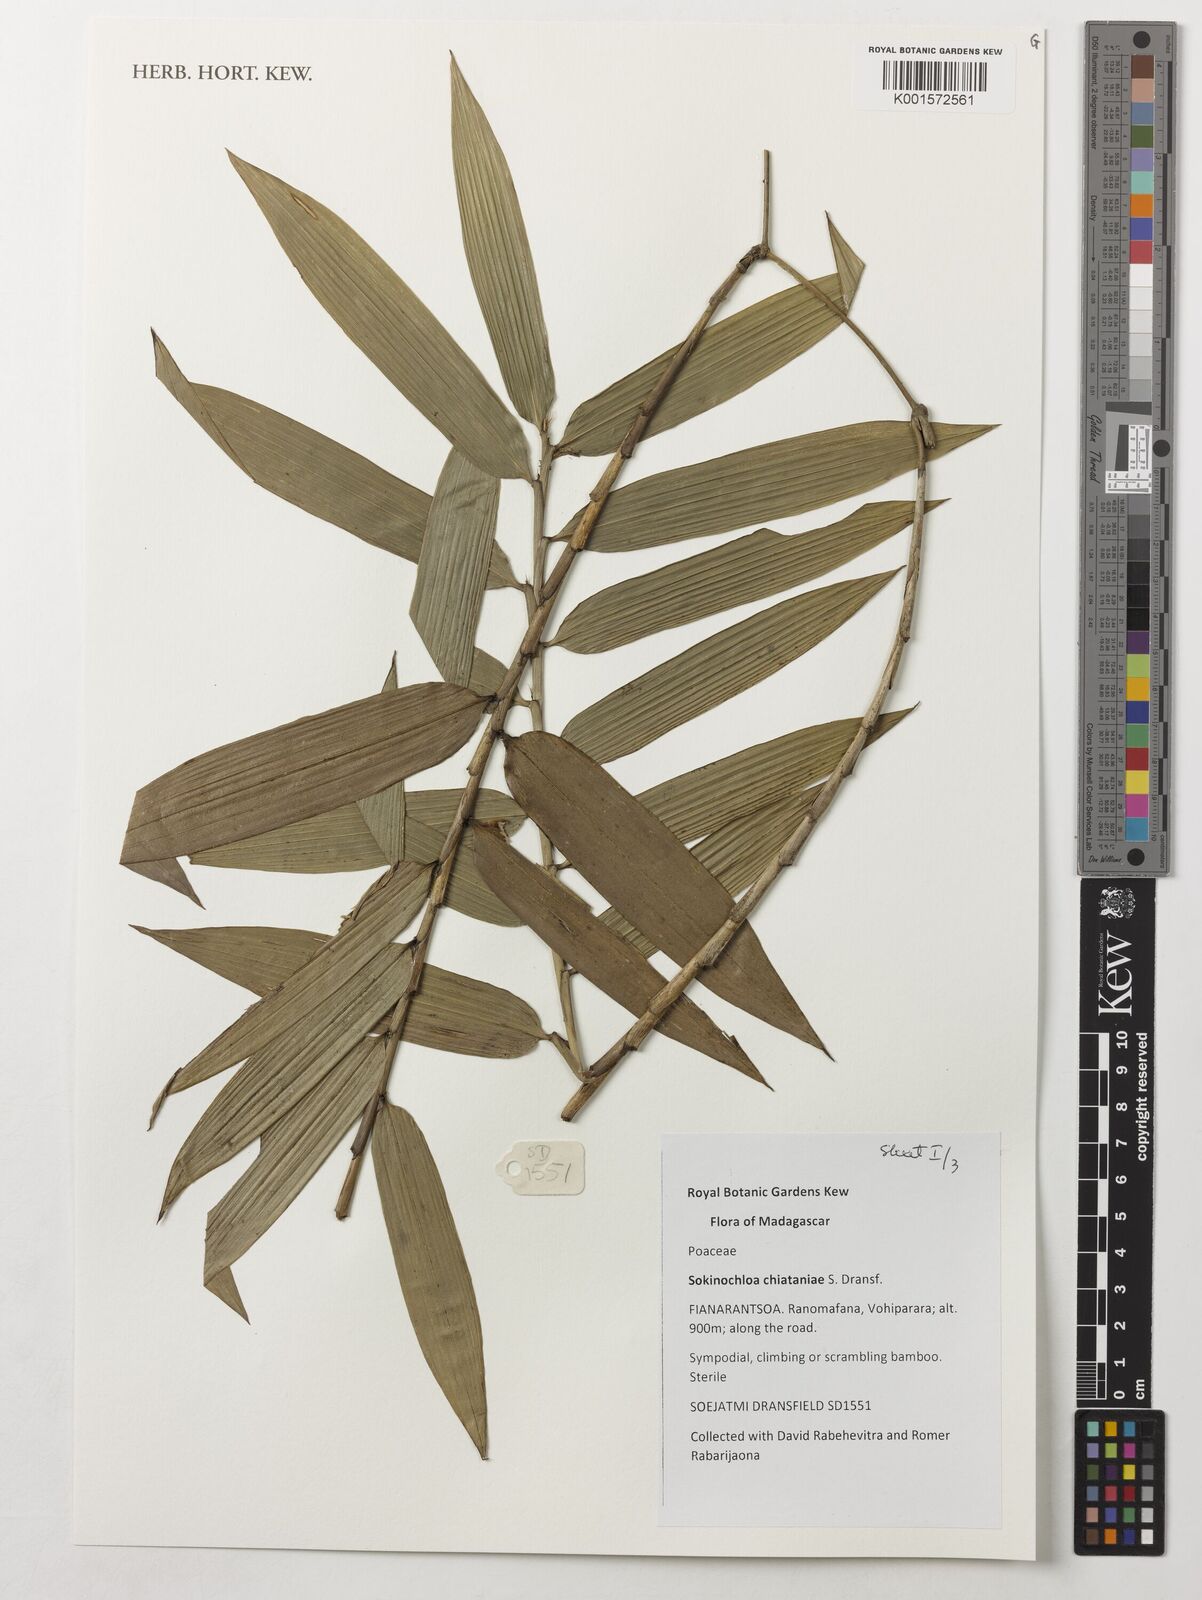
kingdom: Plantae
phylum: Tracheophyta
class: Liliopsida
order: Poales
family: Poaceae
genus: Sokinochloa
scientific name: Sokinochloa chiataniae
